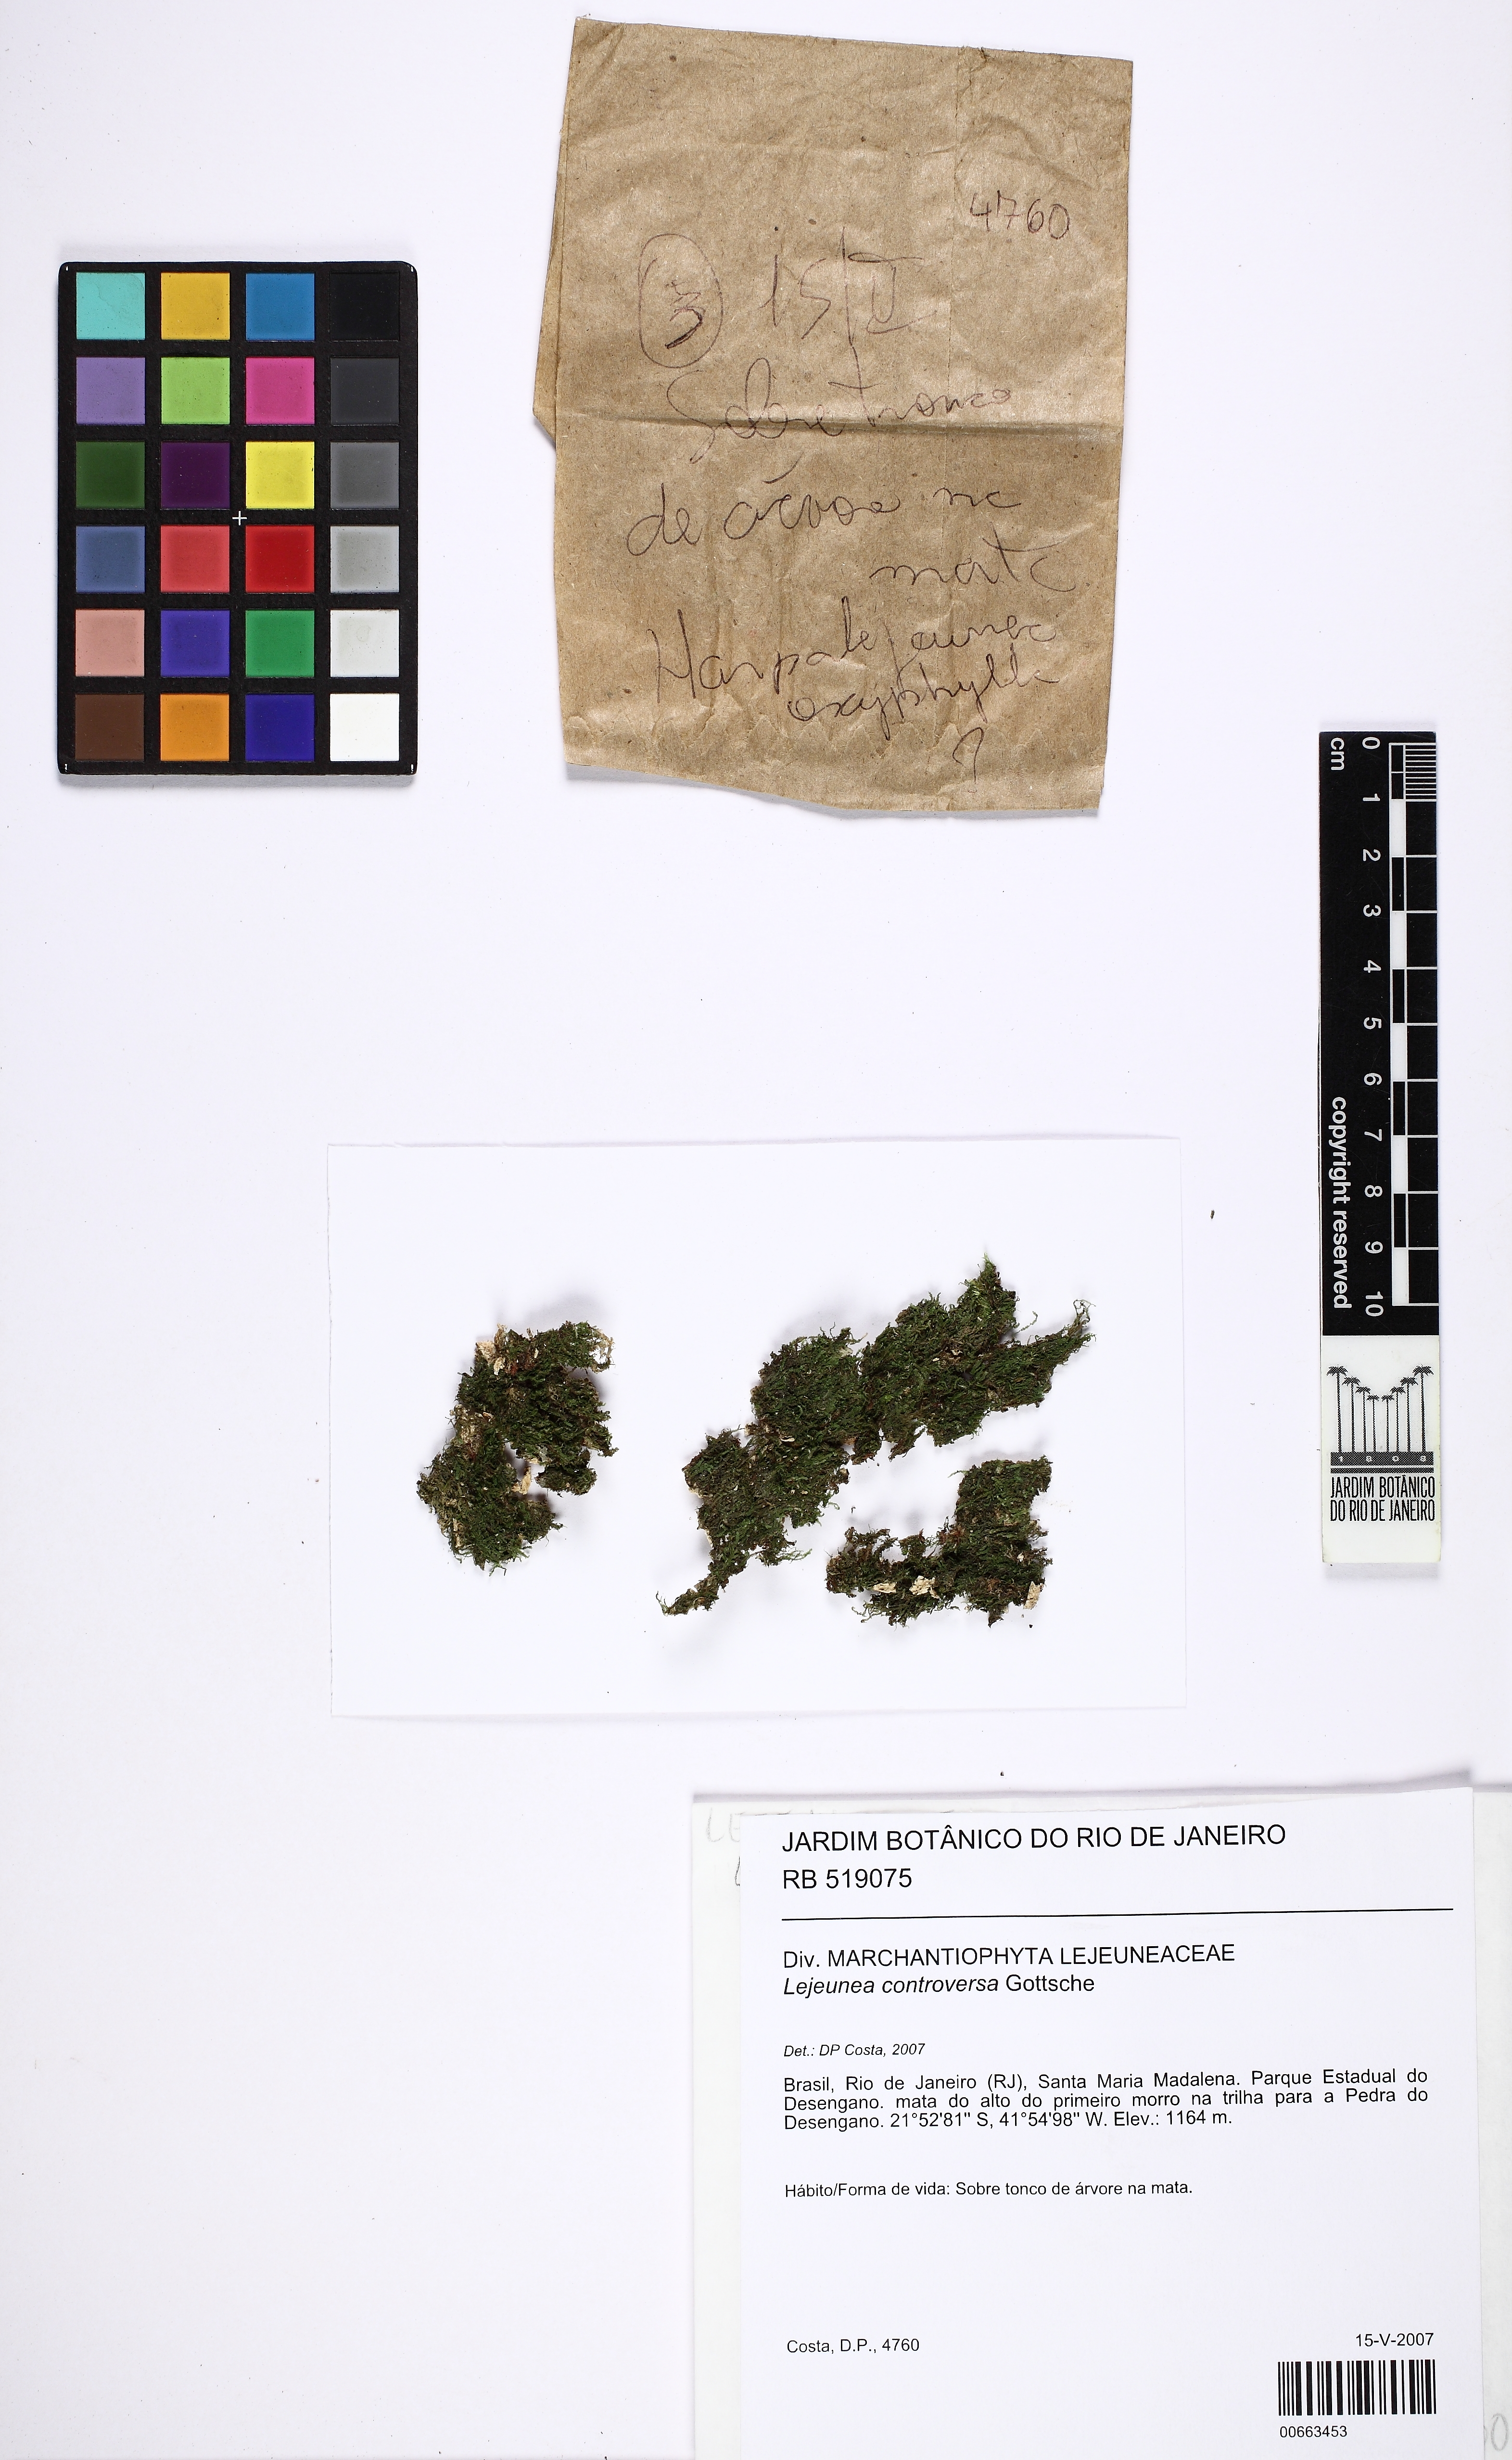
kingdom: Plantae
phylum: Marchantiophyta
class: Jungermanniopsida
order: Porellales
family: Lejeuneaceae
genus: Lejeunea
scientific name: Lejeunea controversa
